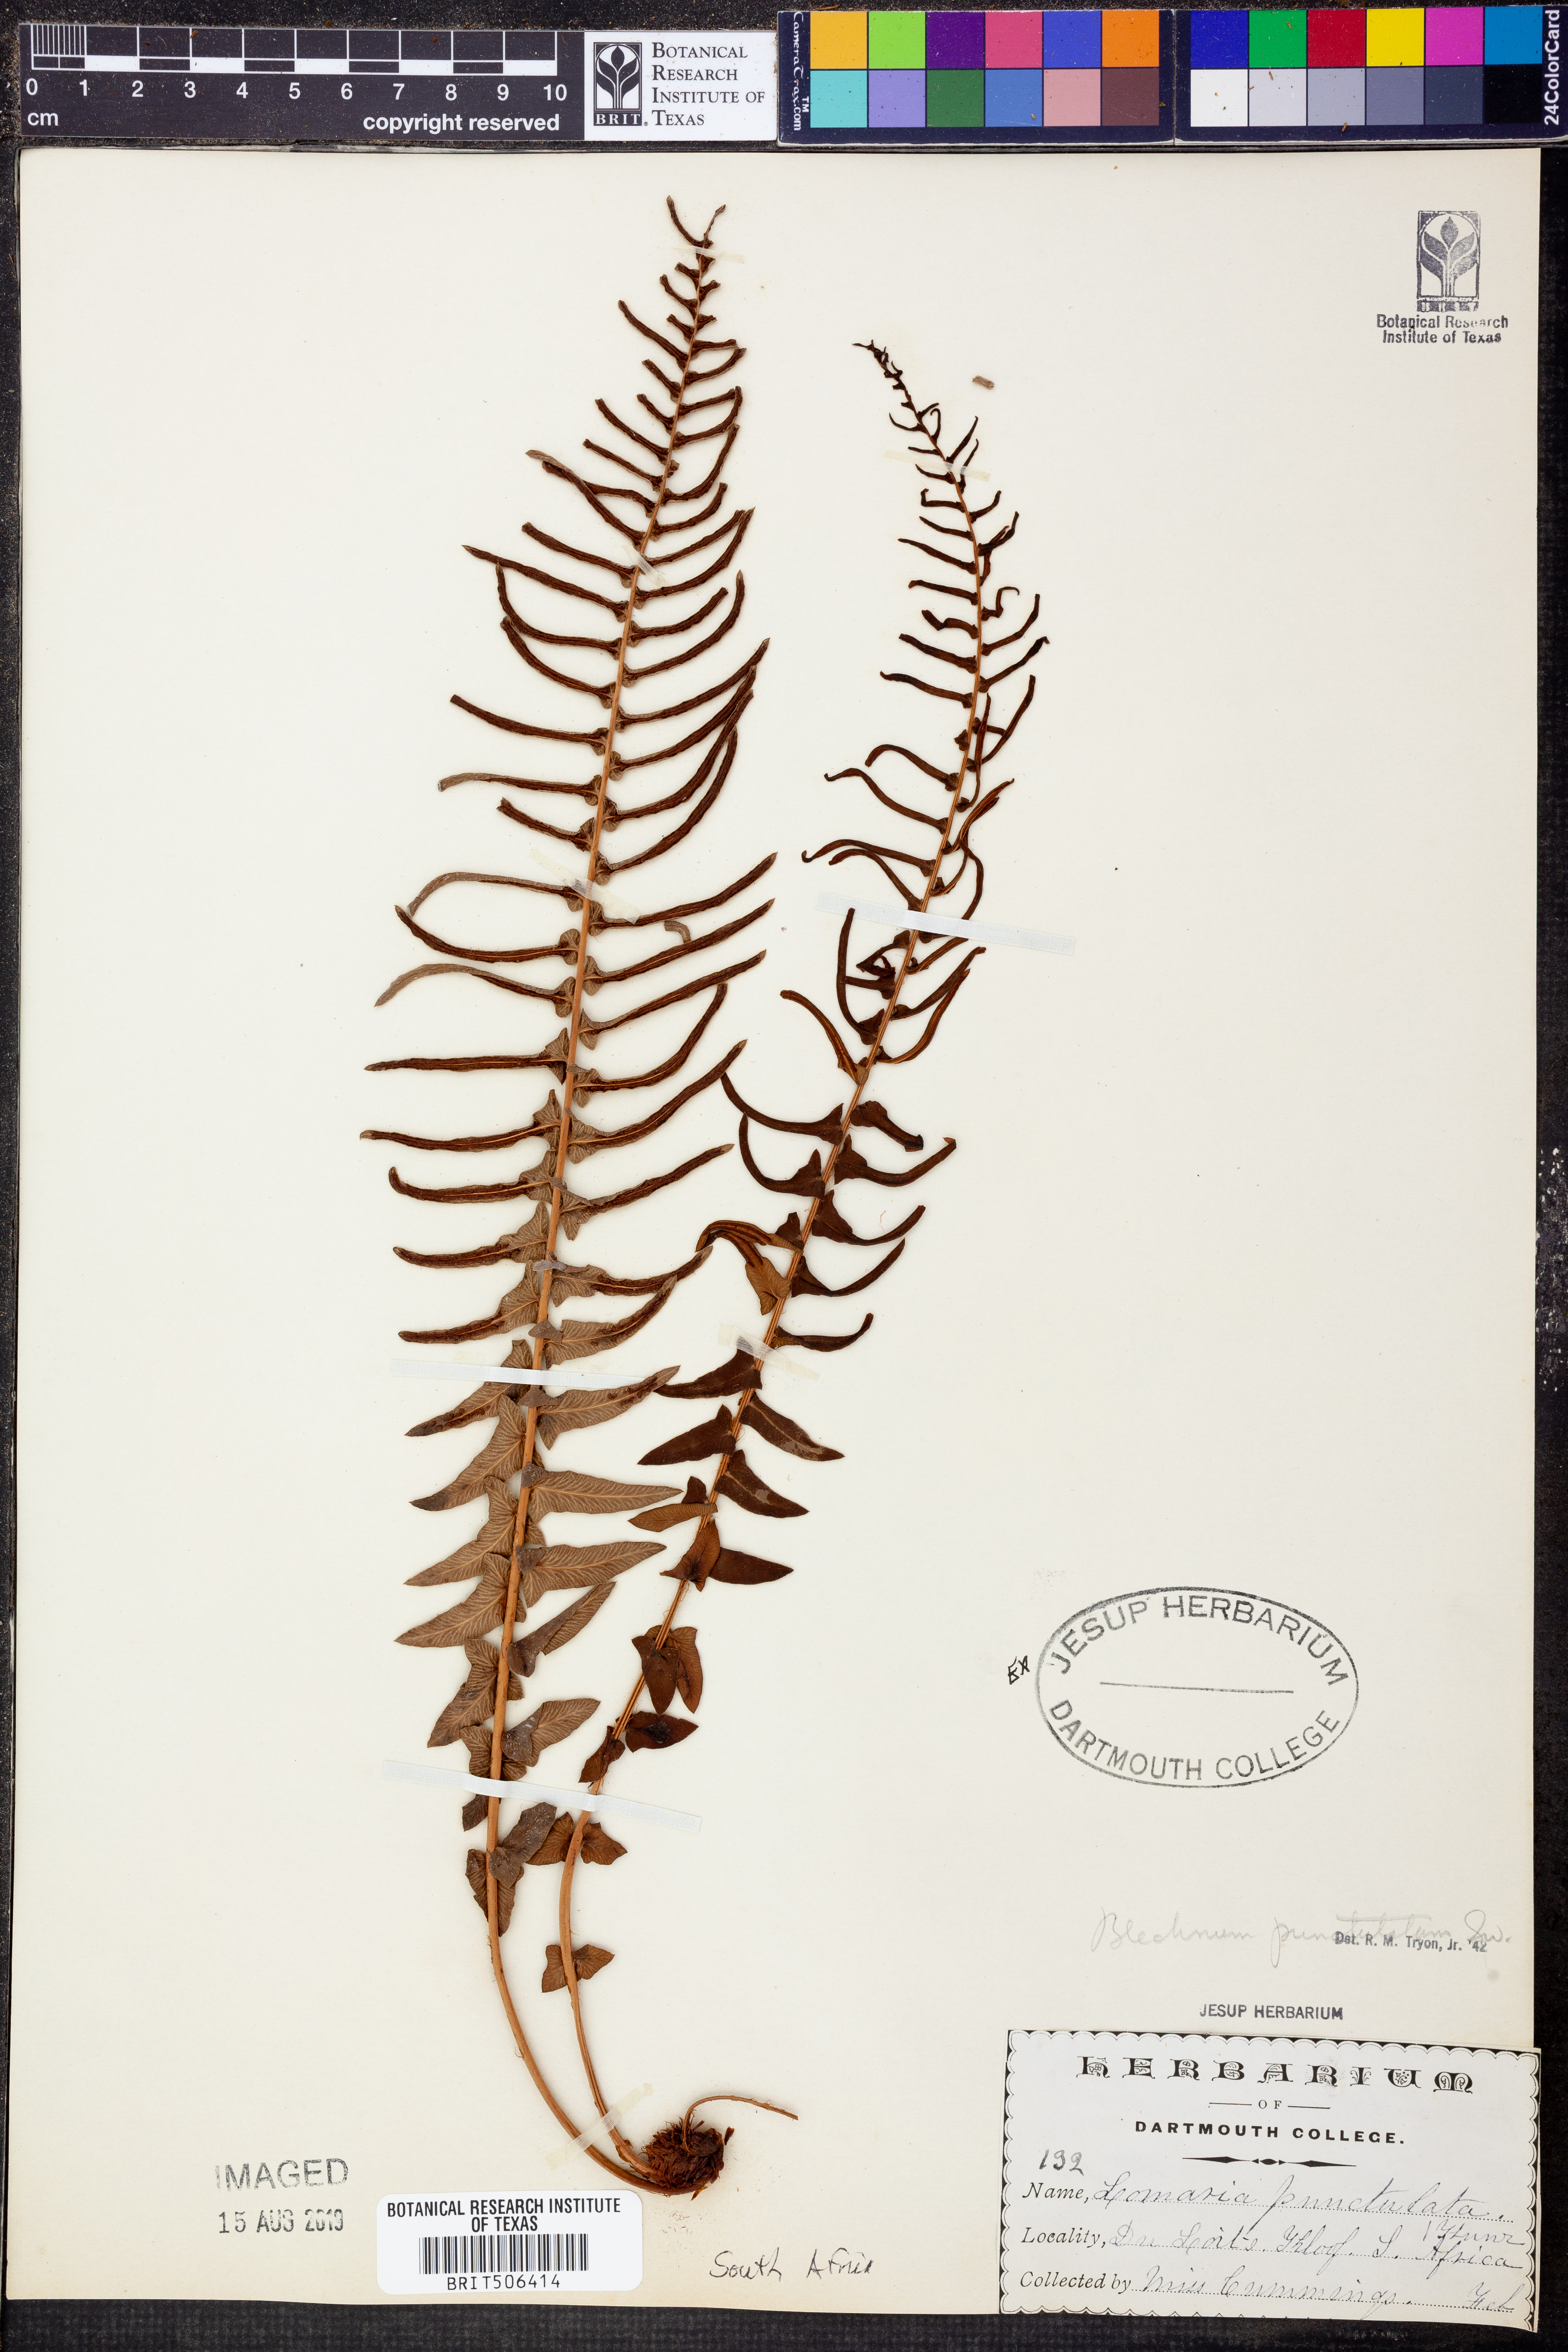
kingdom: Plantae
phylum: Tracheophyta
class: Polypodiopsida
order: Polypodiales
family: Blechnaceae
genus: Blechnum
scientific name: Blechnum punctulatum
